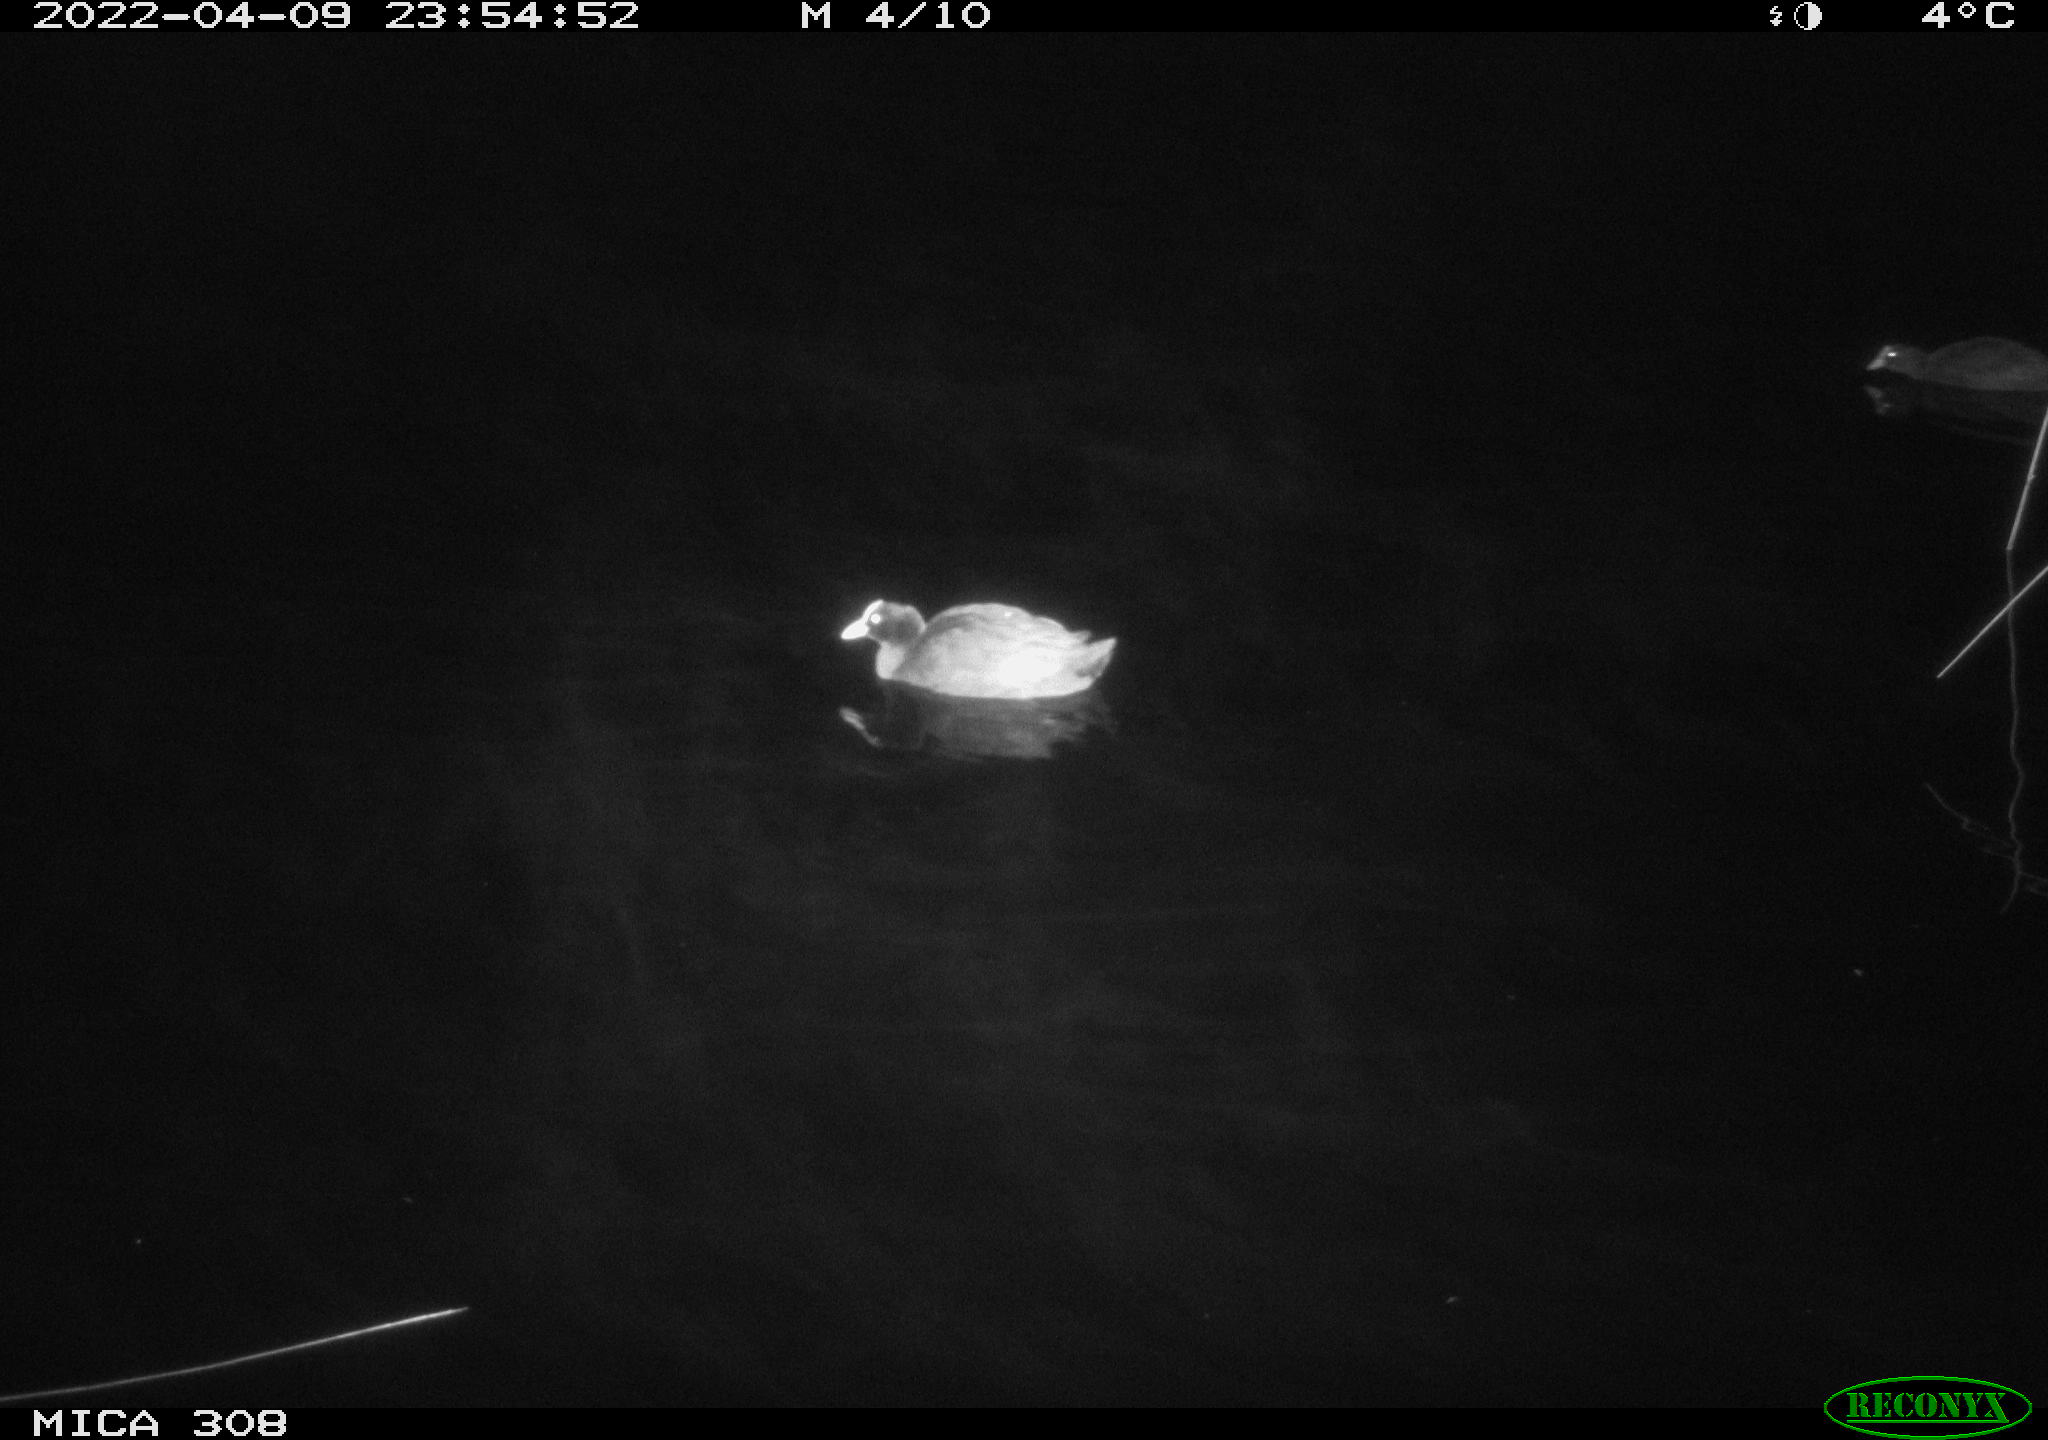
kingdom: Animalia
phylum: Chordata
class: Aves
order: Gruiformes
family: Rallidae
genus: Fulica
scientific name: Fulica atra
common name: Eurasian coot
